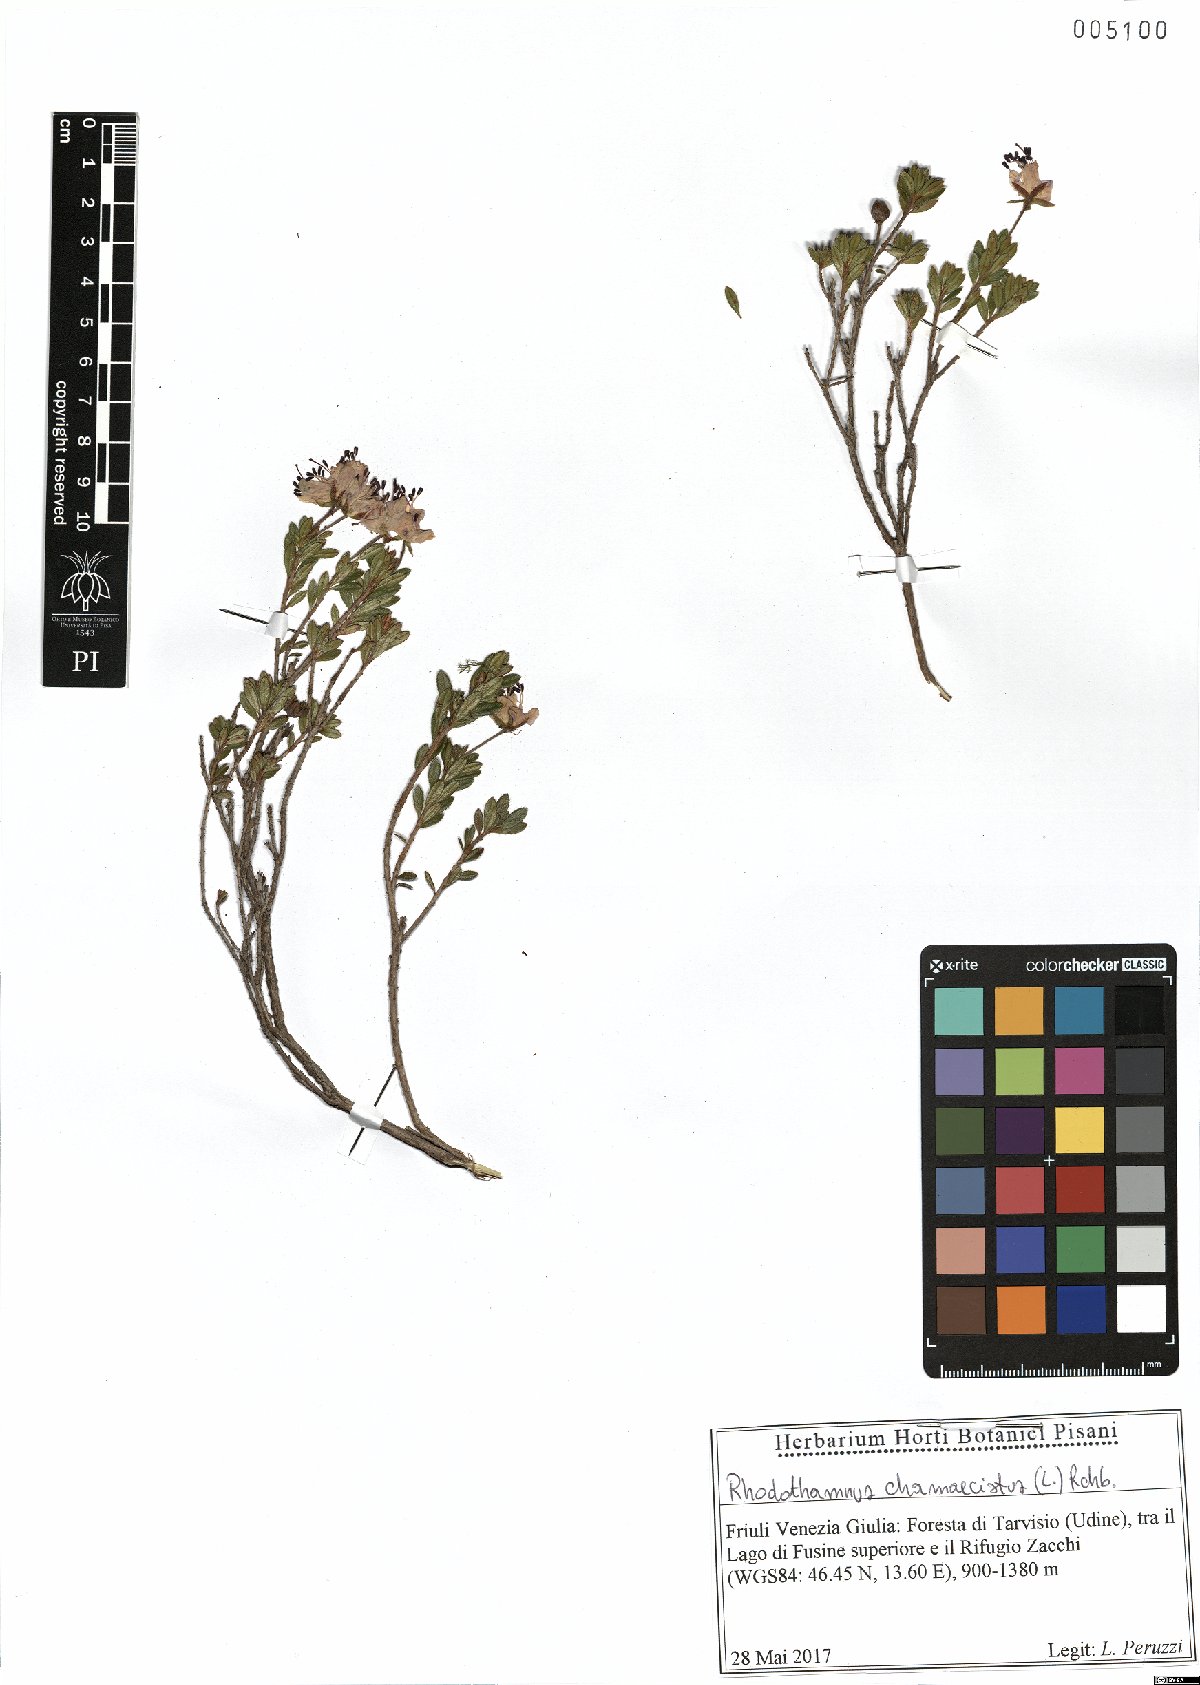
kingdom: Plantae
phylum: Tracheophyta
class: Magnoliopsida
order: Ericales
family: Ericaceae
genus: Rhodothamnus
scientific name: Rhodothamnus chamaecistus
